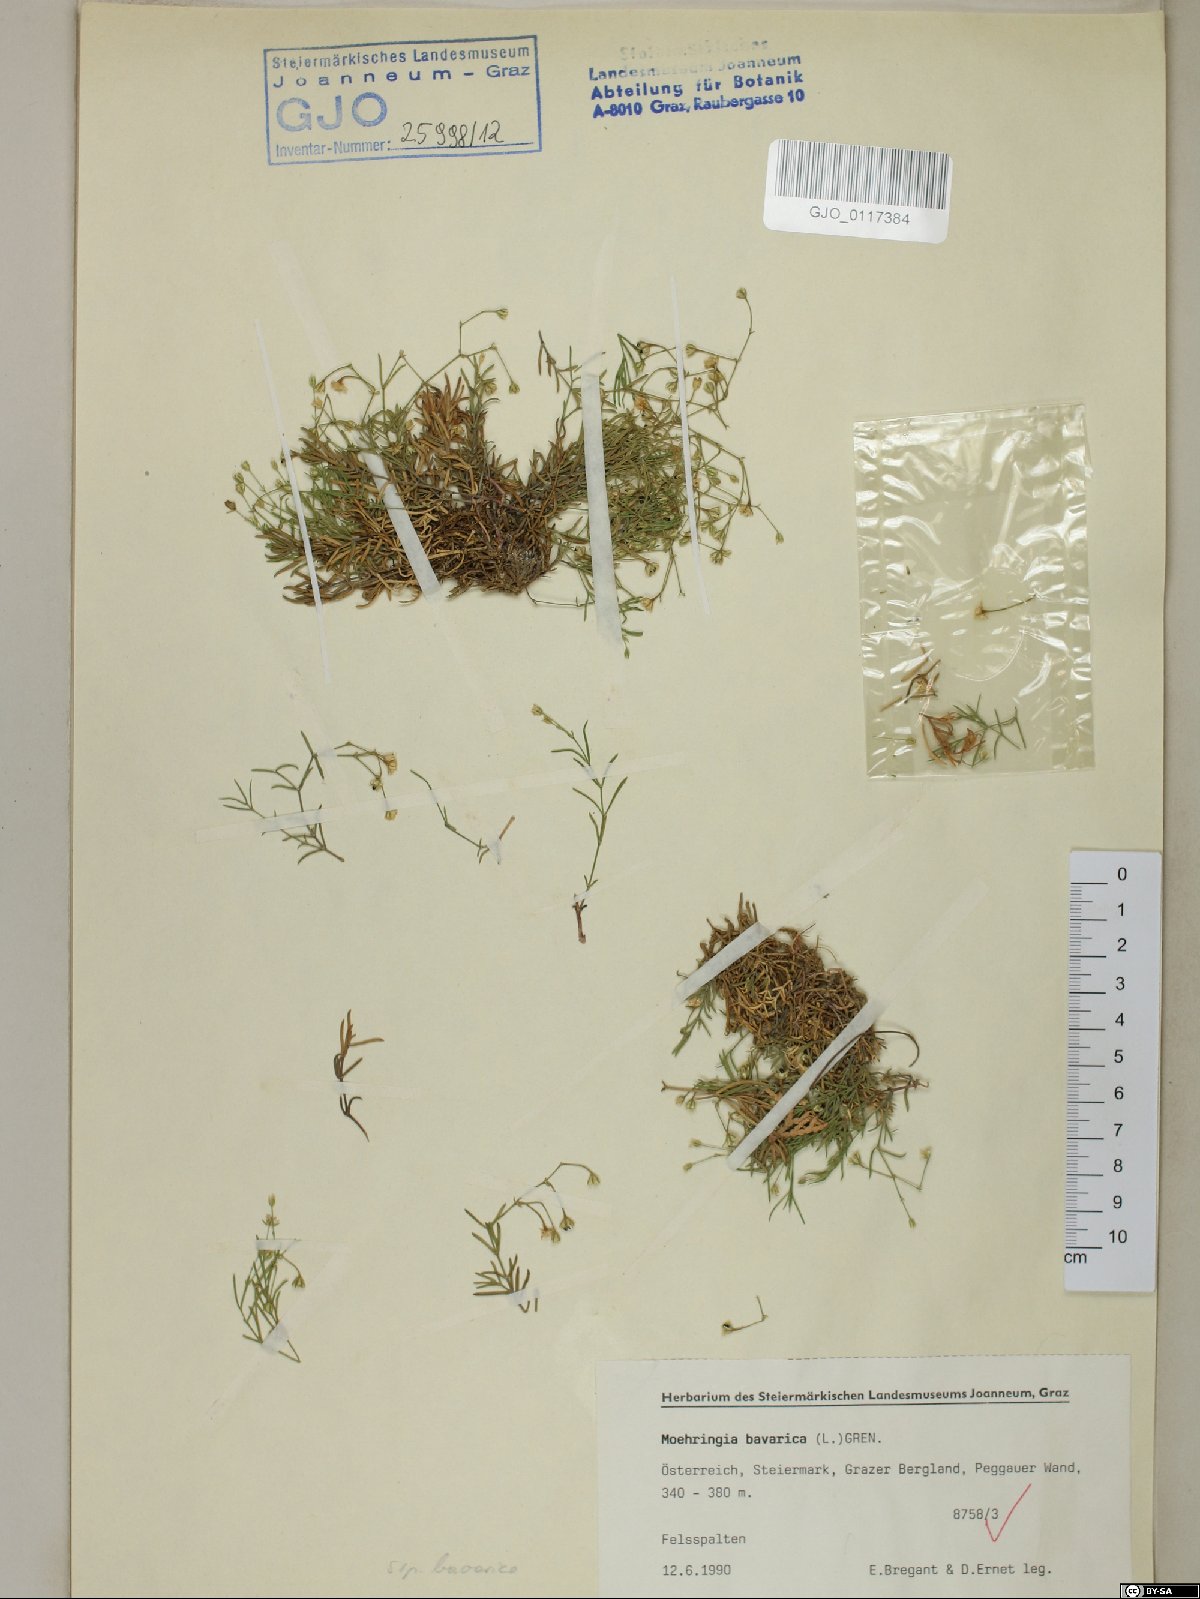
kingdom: Plantae
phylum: Tracheophyta
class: Magnoliopsida
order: Caryophyllales
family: Caryophyllaceae
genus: Moehringia
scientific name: Moehringia bavarica
